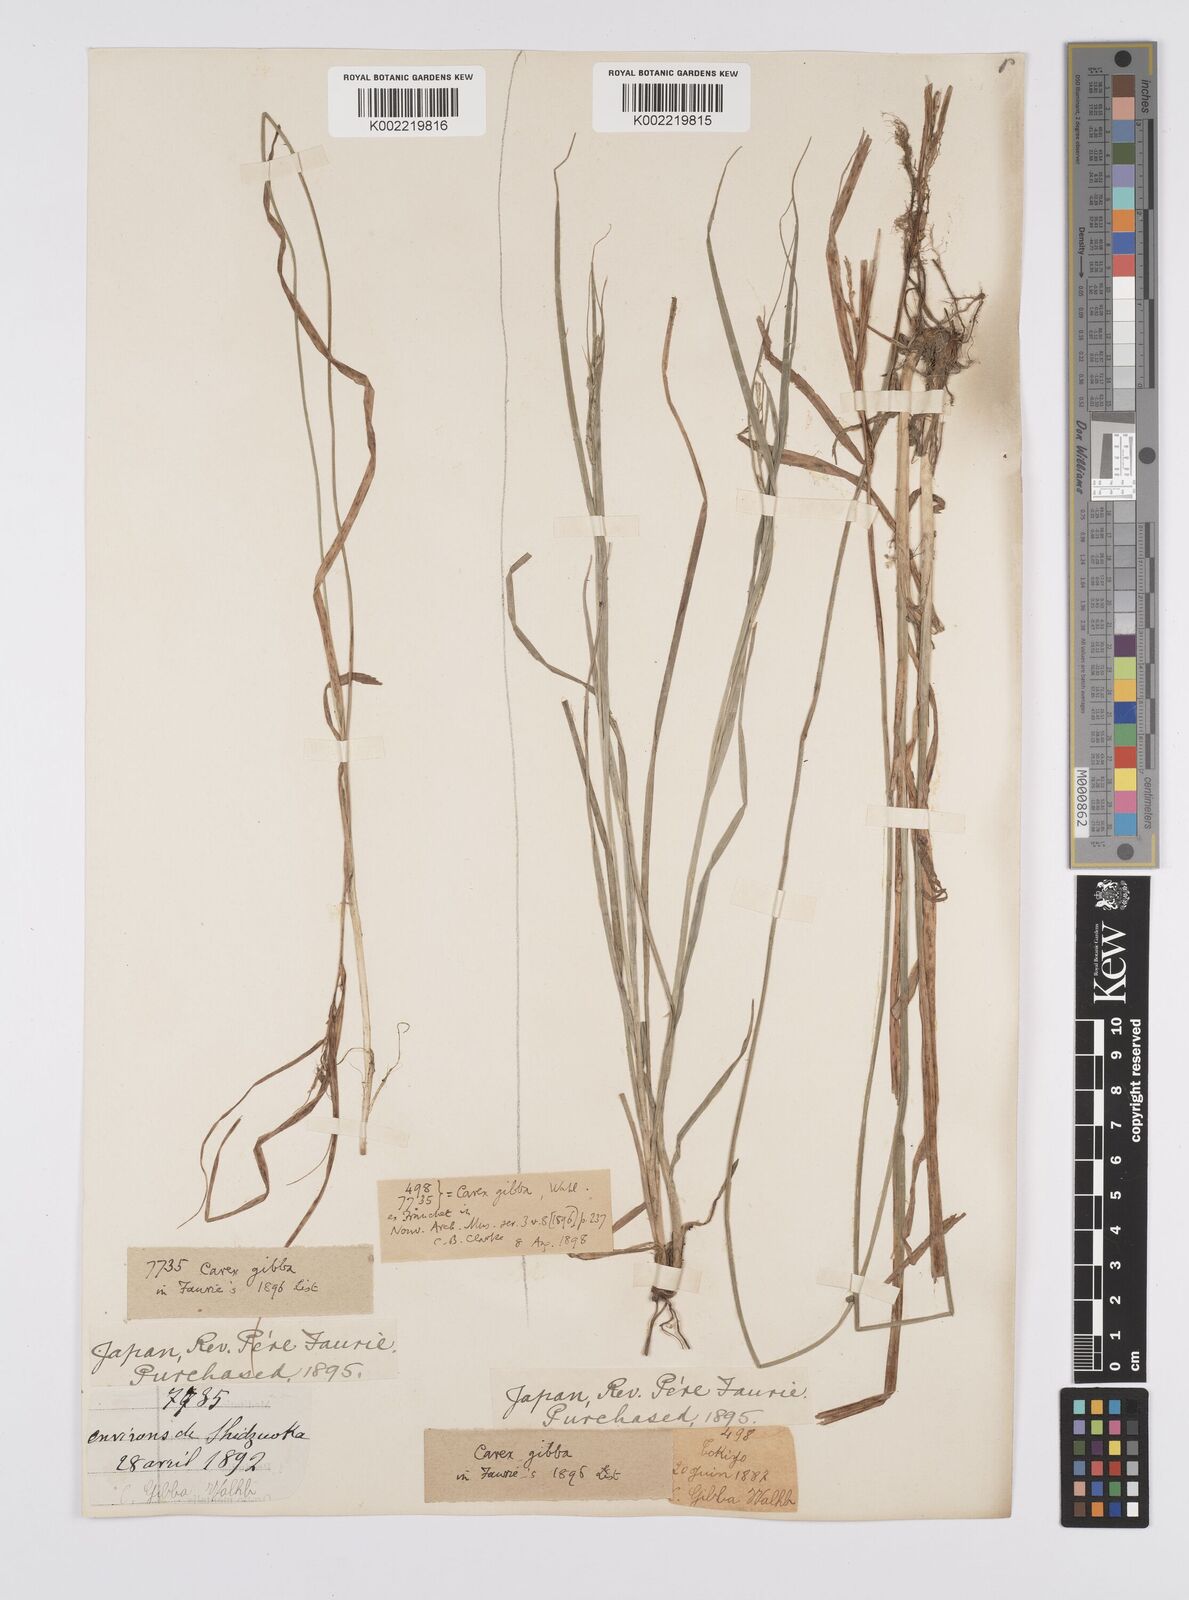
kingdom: Plantae
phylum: Tracheophyta
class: Liliopsida
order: Poales
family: Cyperaceae
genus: Carex
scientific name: Carex gibba
